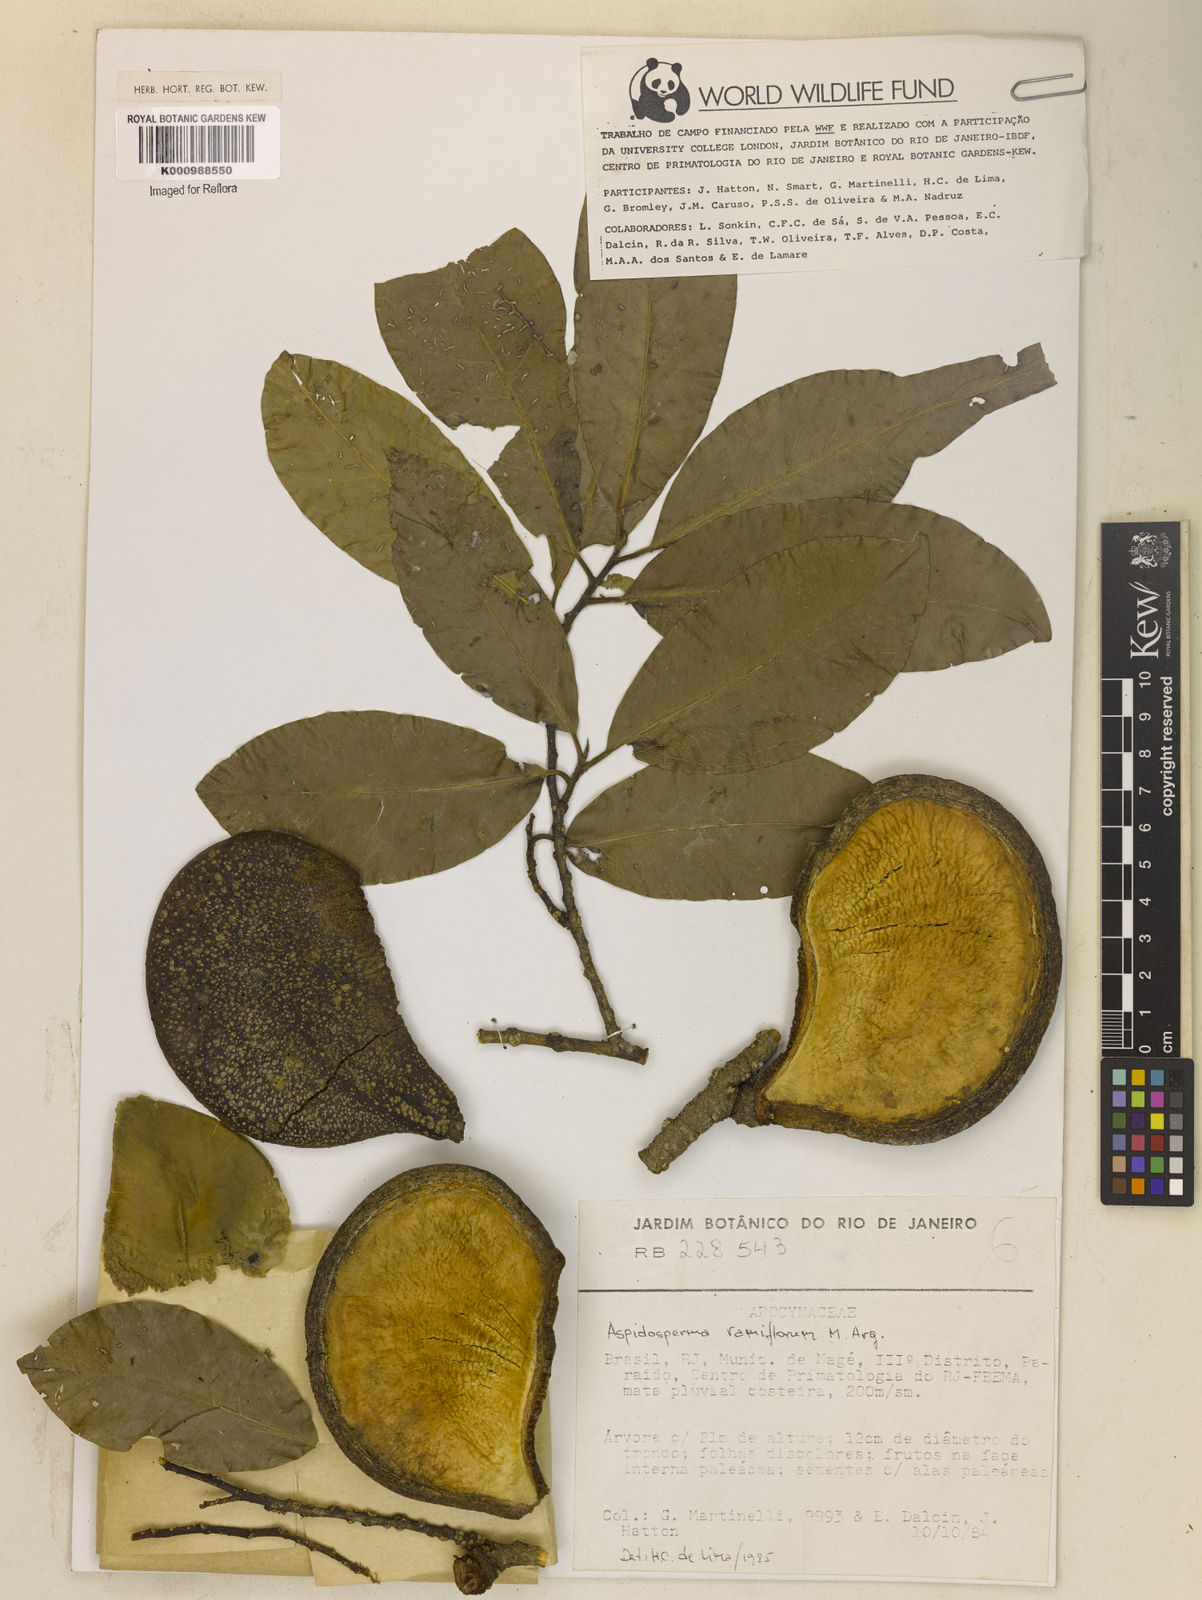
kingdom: Plantae
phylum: Tracheophyta
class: Magnoliopsida
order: Gentianales
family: Apocynaceae
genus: Aspidosperma
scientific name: Aspidosperma
